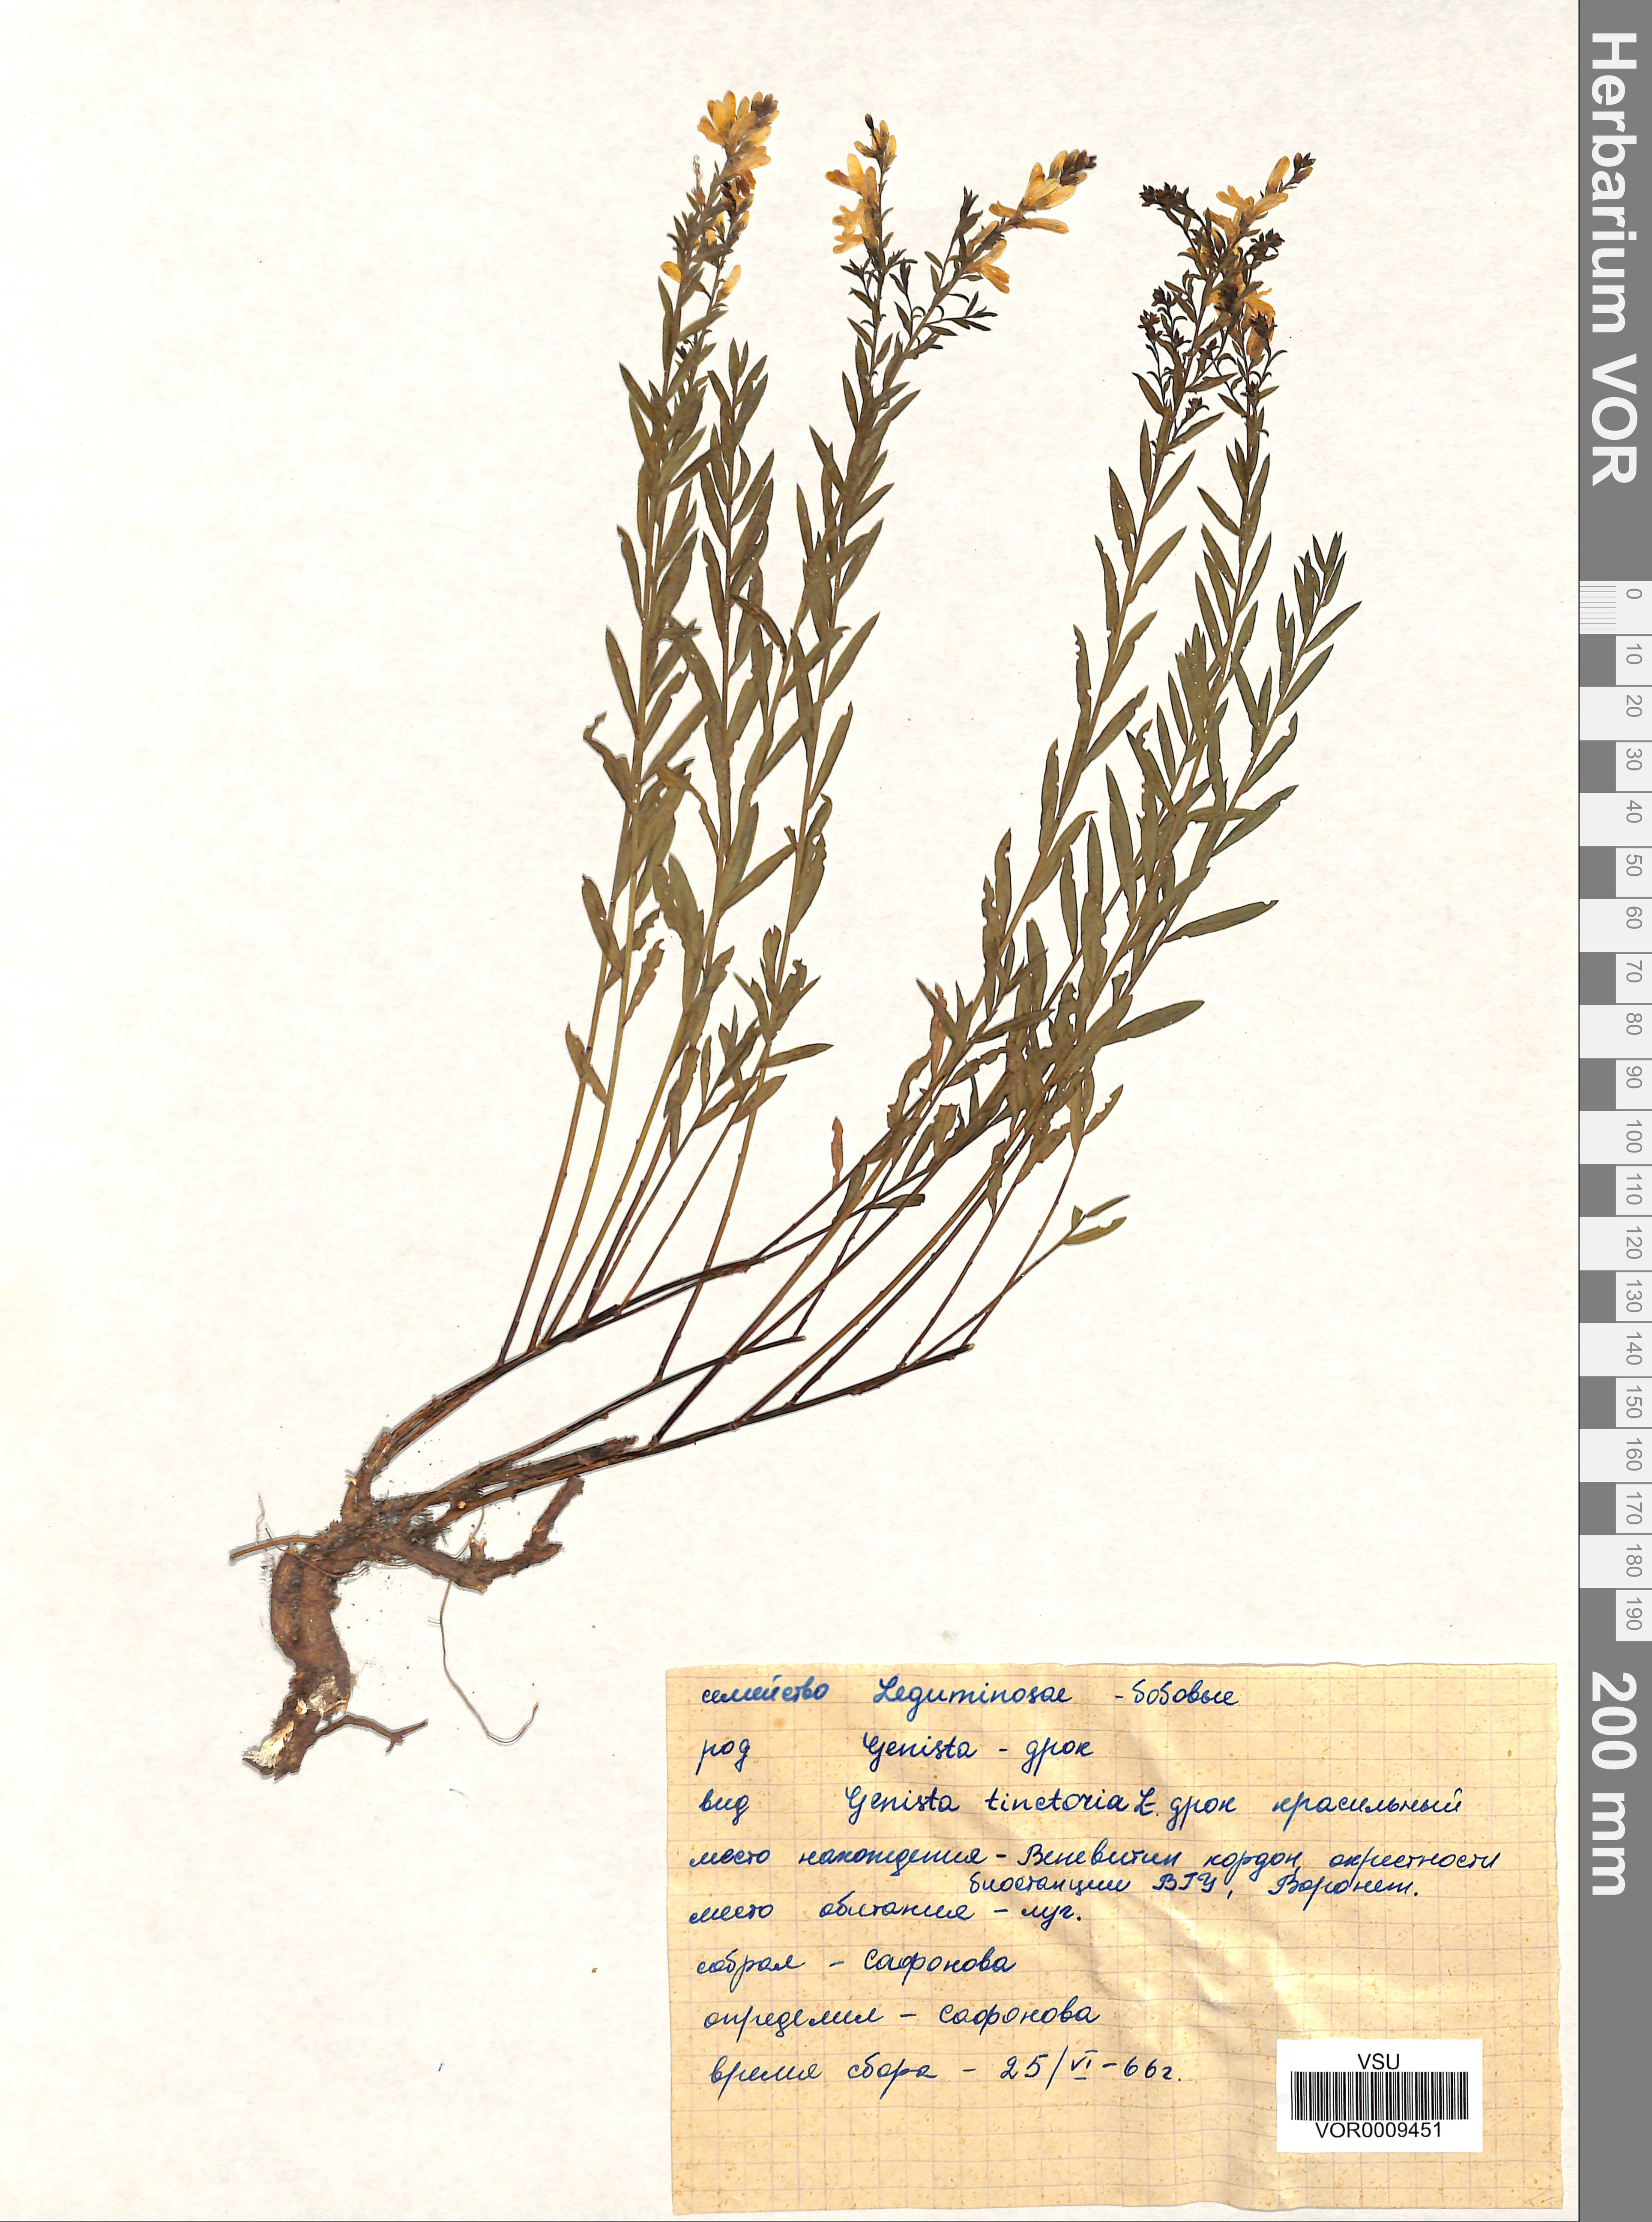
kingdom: Plantae
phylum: Tracheophyta
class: Magnoliopsida
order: Fabales
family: Fabaceae
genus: Genista
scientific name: Genista tinctoria
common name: Dyer's greenweed
